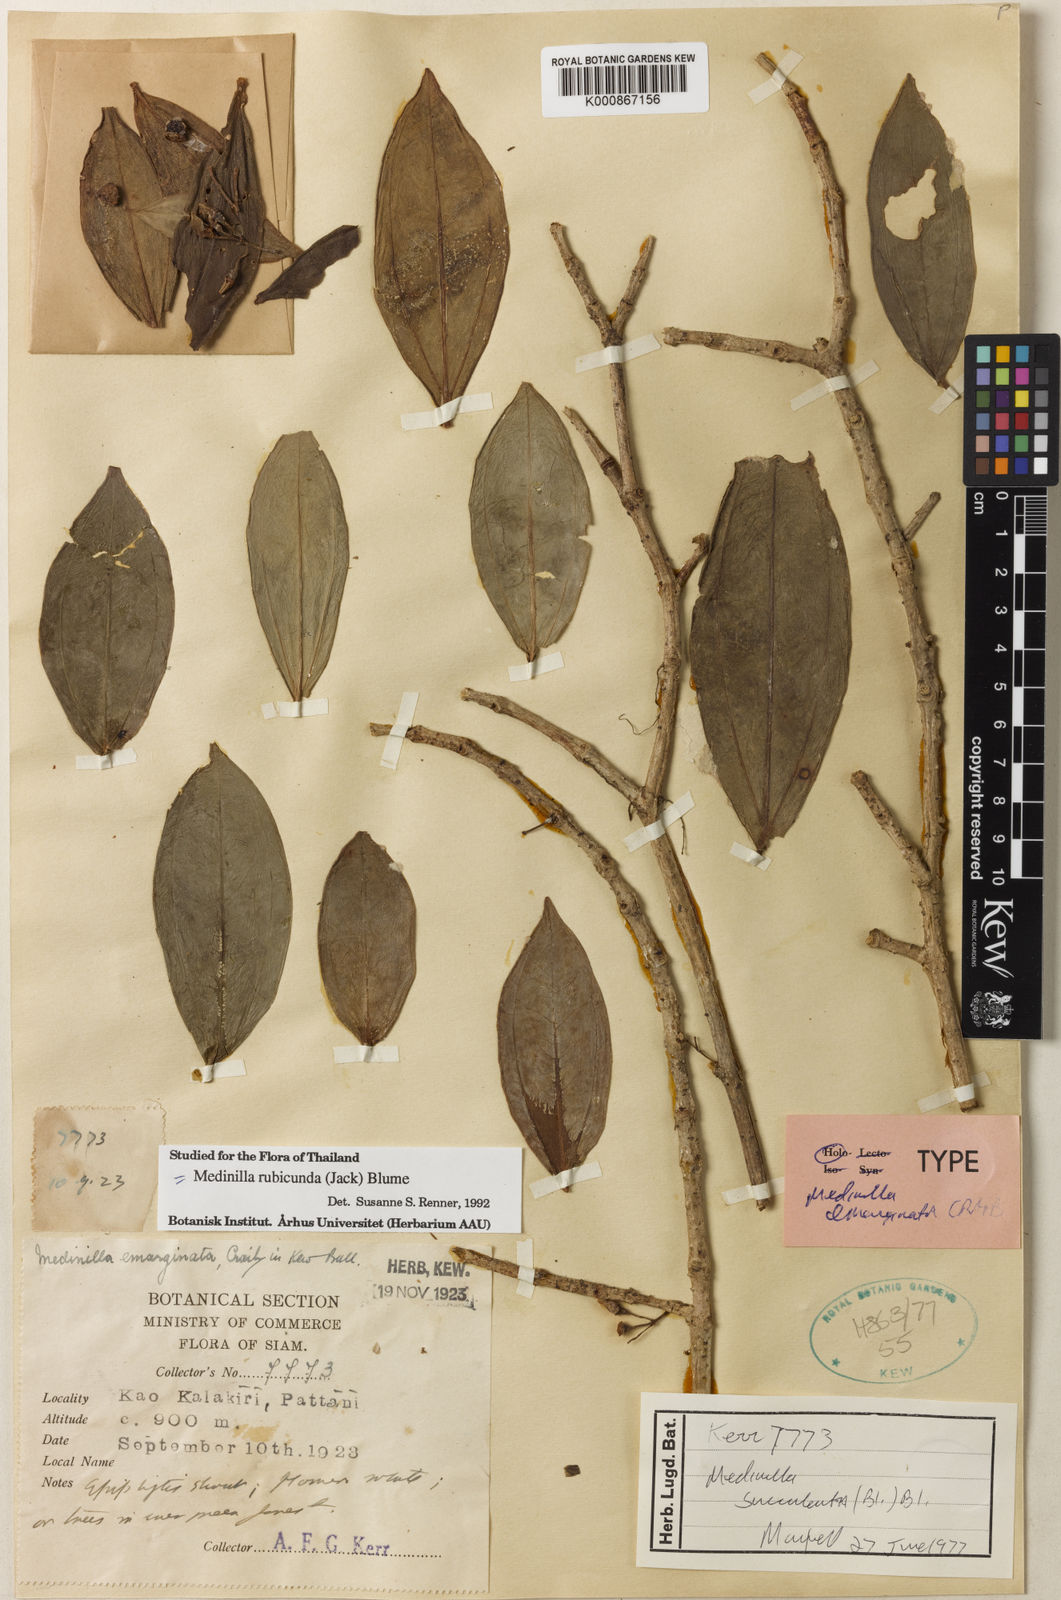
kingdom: Plantae
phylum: Tracheophyta
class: Magnoliopsida
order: Myrtales
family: Melastomataceae
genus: Medinilla
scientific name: Medinilla succulenta
